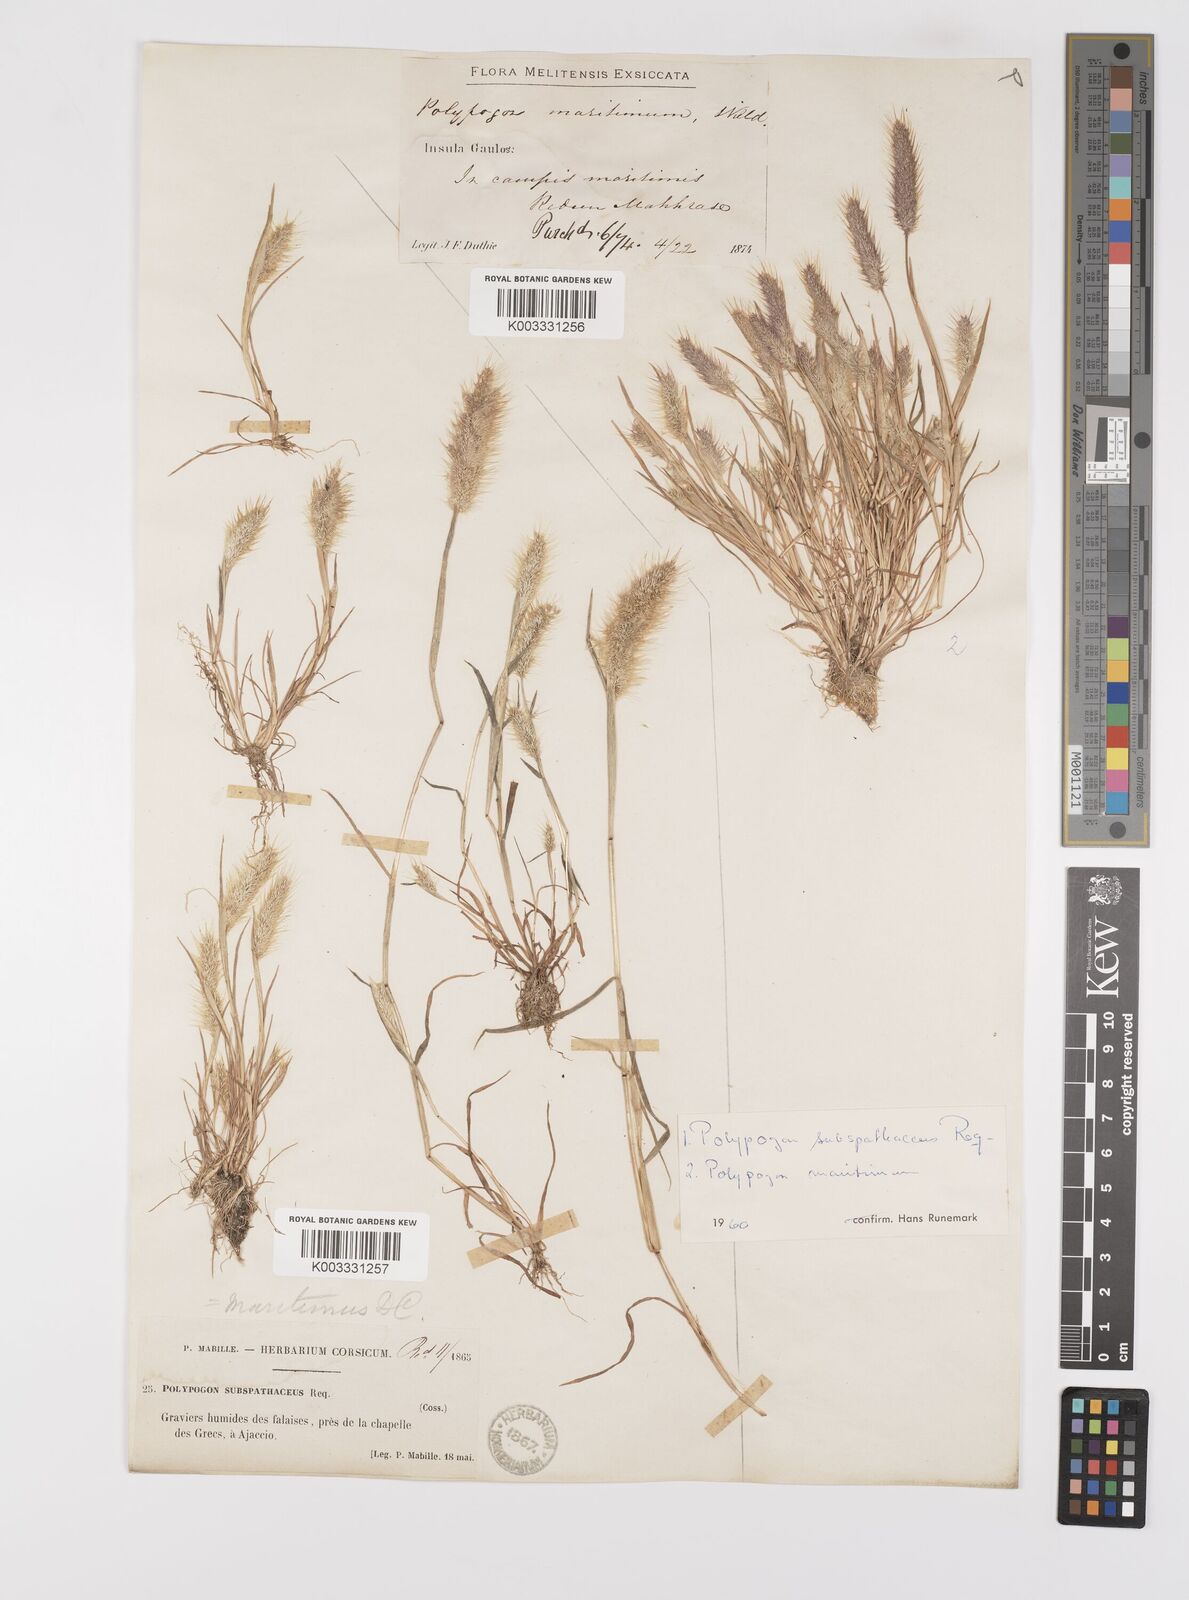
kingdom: Plantae
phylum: Tracheophyta
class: Liliopsida
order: Poales
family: Poaceae
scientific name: Poaceae
